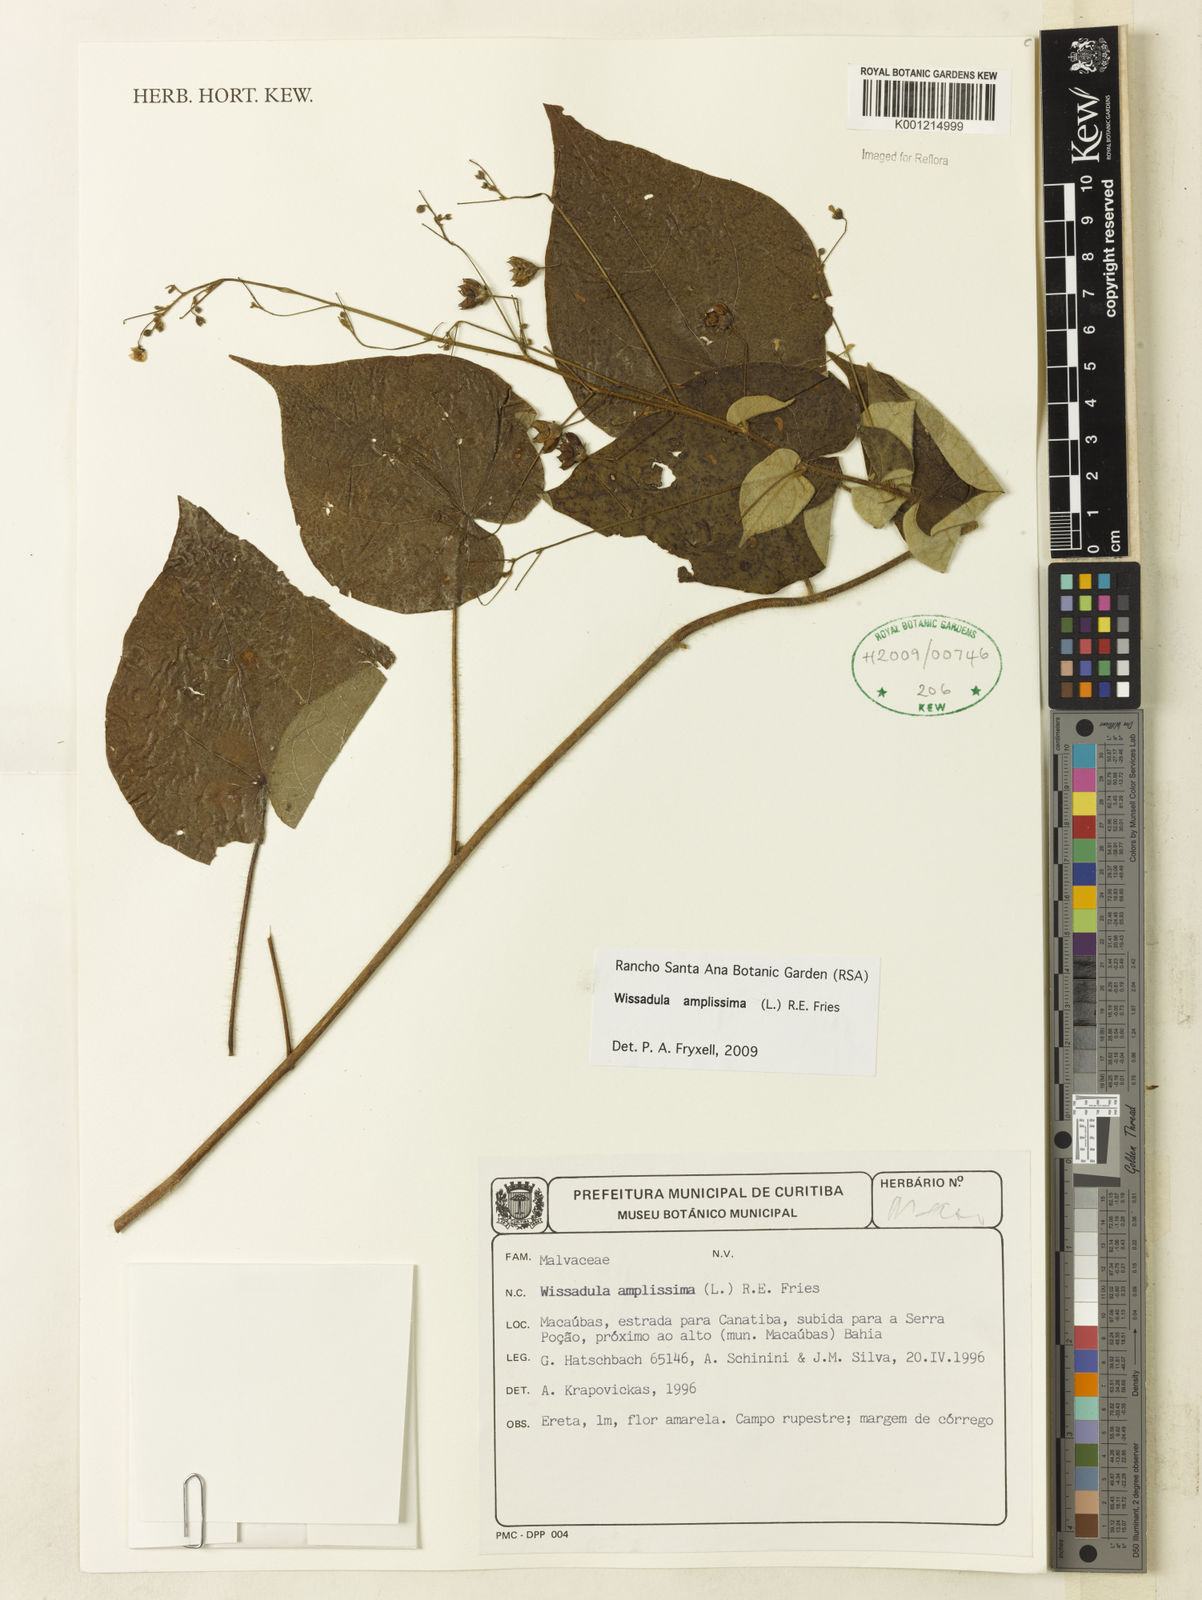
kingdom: Plantae
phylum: Tracheophyta
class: Magnoliopsida
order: Malvales
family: Malvaceae
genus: Wissadula
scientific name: Wissadula amplissima
